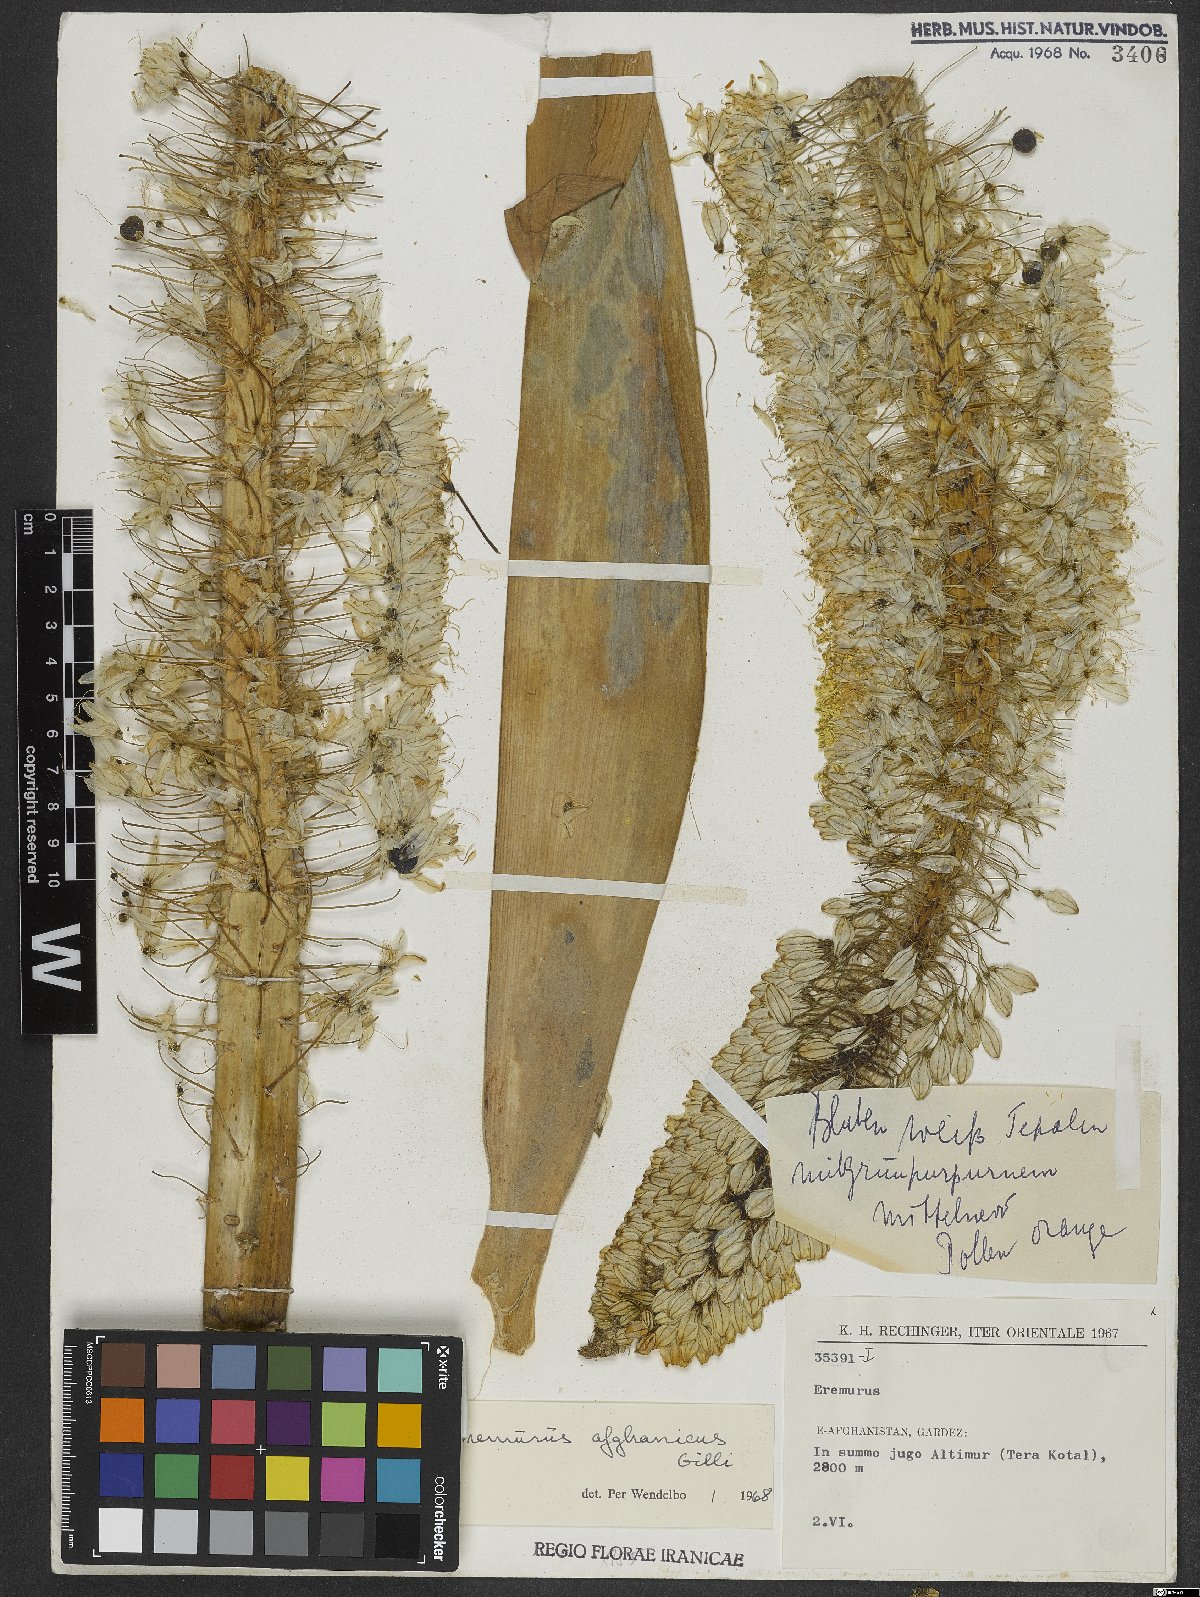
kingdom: Plantae
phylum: Tracheophyta
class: Liliopsida
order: Asparagales
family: Asphodelaceae
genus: Eremurus
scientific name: Eremurus afghanicus
